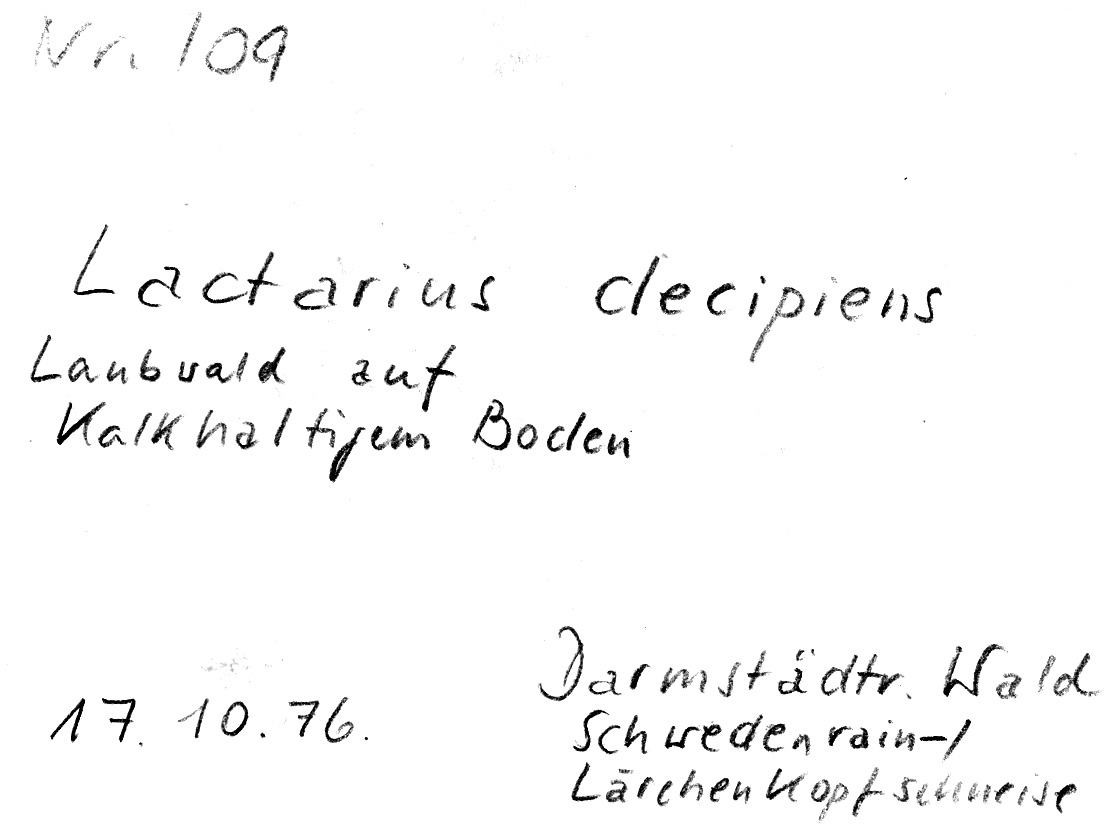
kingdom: Fungi
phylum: Basidiomycota
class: Agaricomycetes
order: Russulales
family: Russulaceae
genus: Lactarius
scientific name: Lactarius fulvissimus
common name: Tawny milkcap
